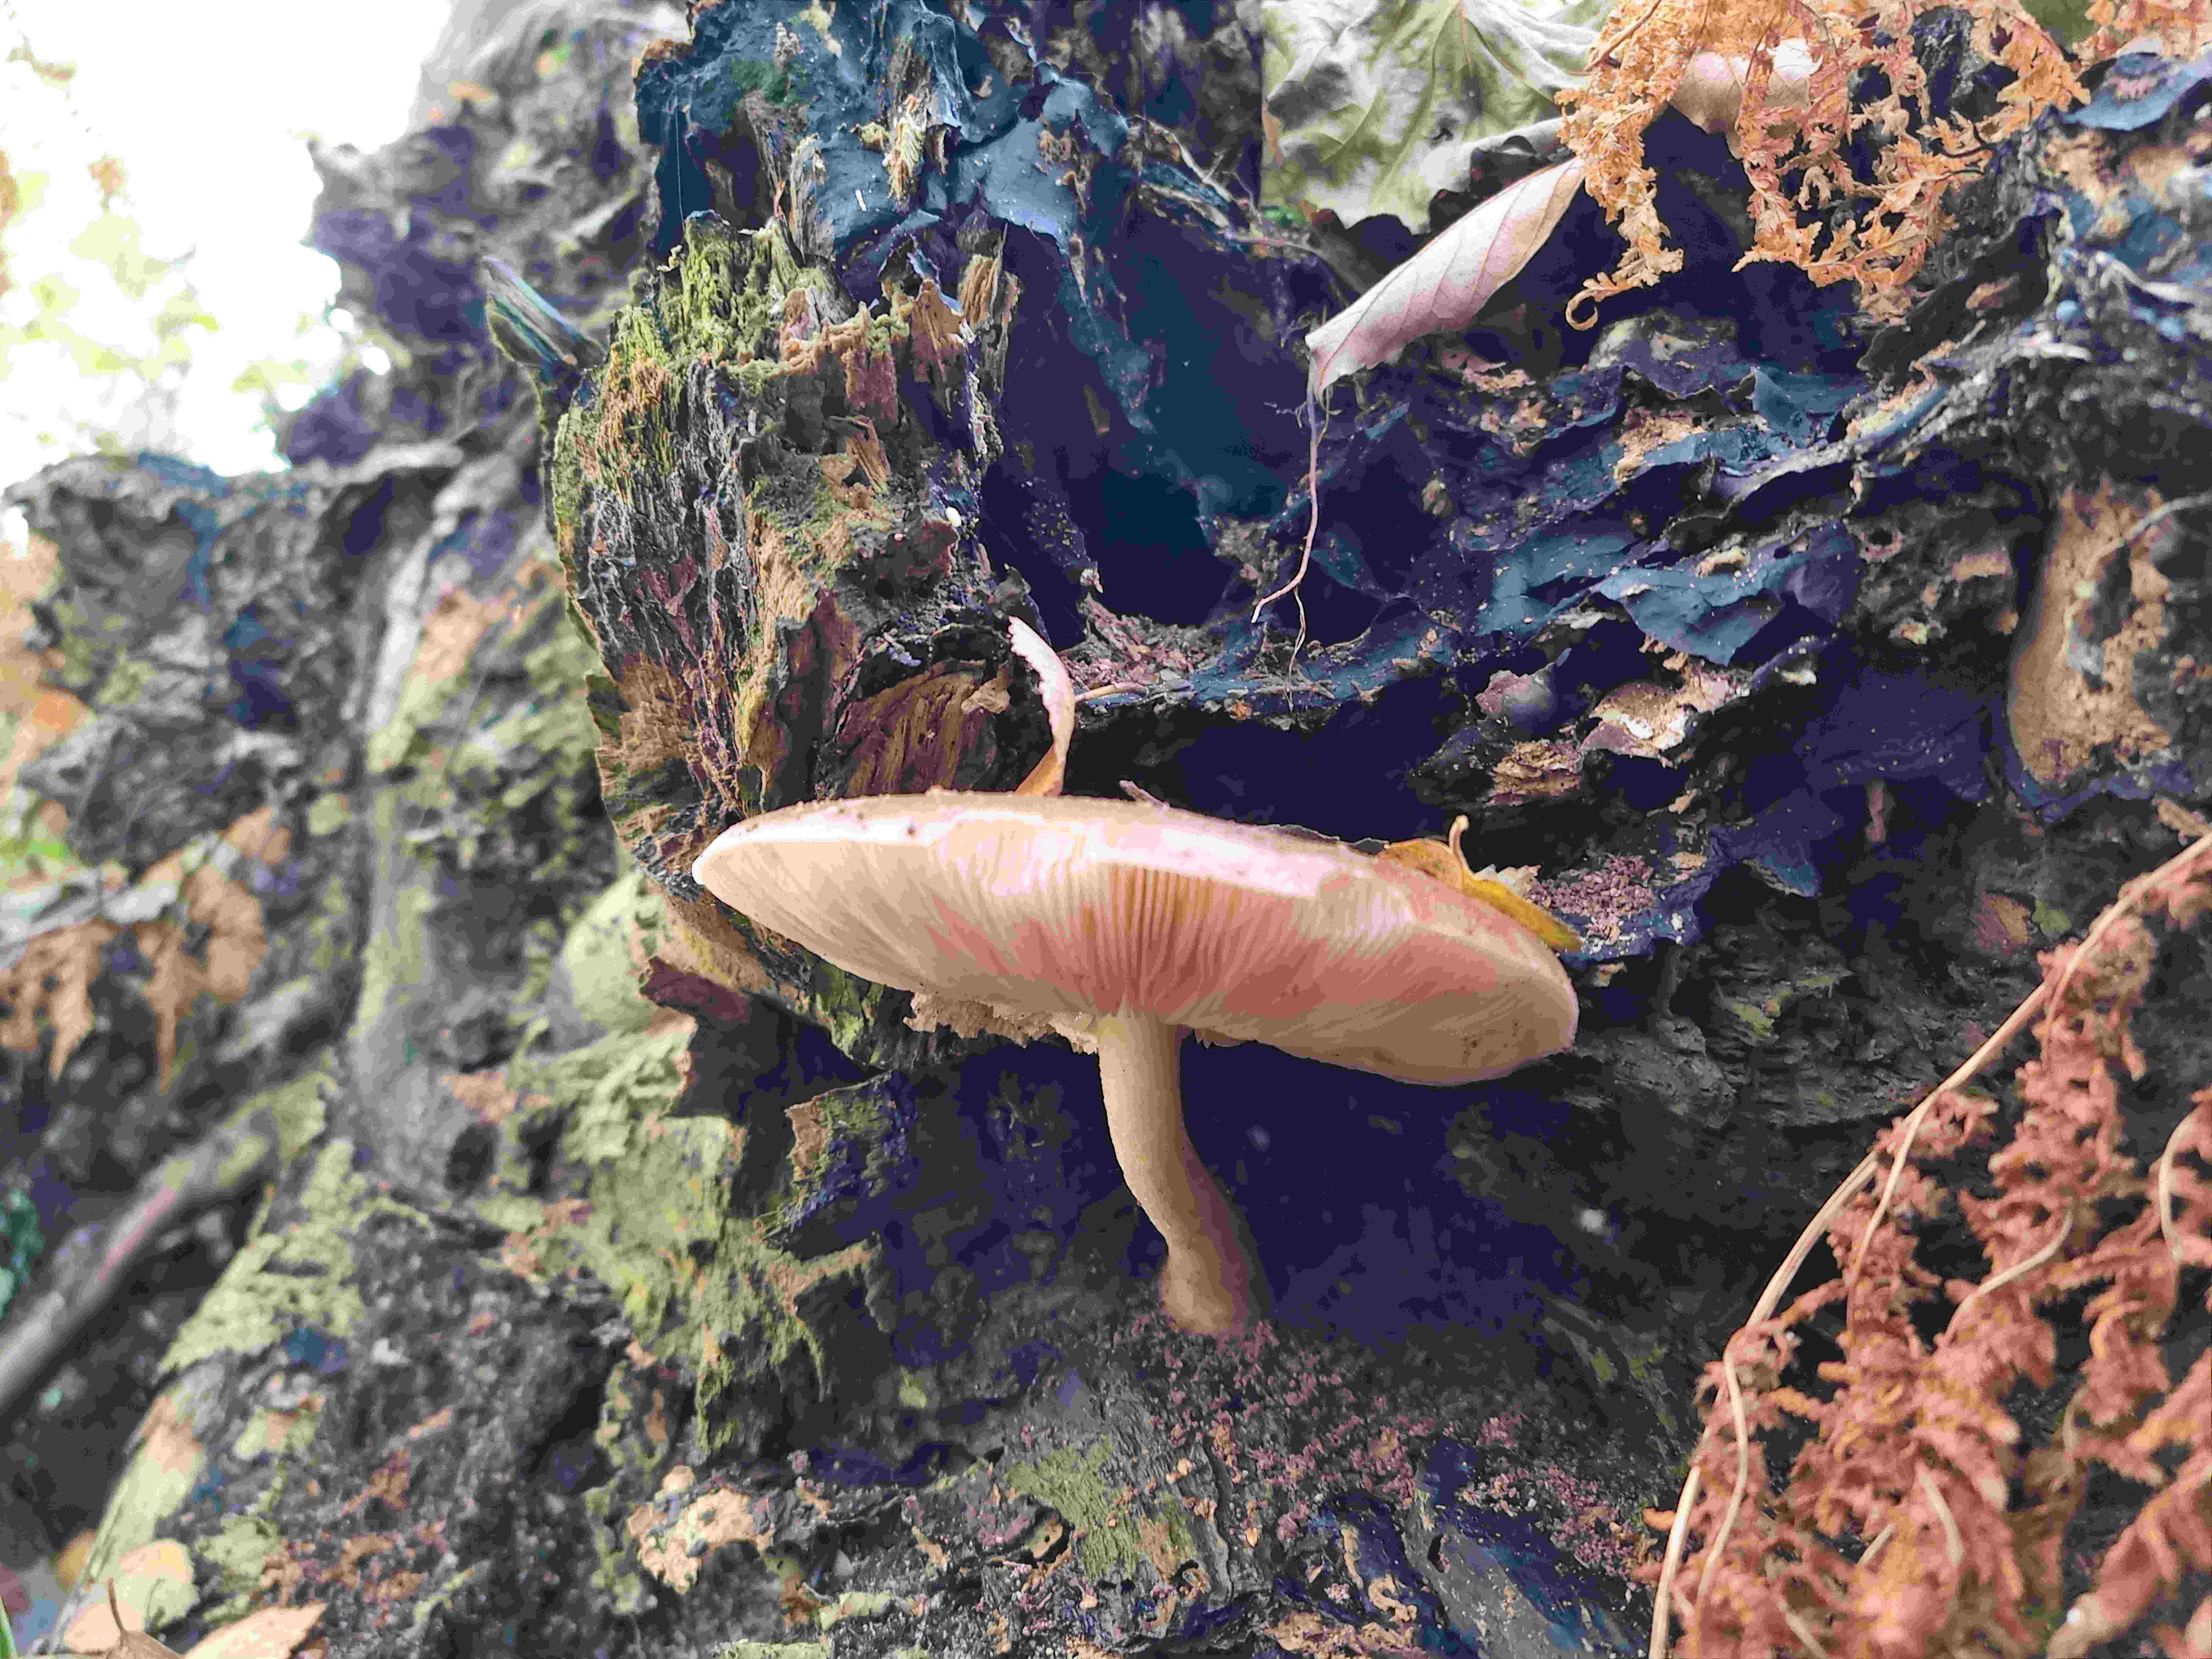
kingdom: Fungi
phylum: Basidiomycota
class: Agaricomycetes
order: Agaricales
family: Pluteaceae
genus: Pluteus
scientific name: Pluteus cervinus
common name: sodfarvet skærmhat
